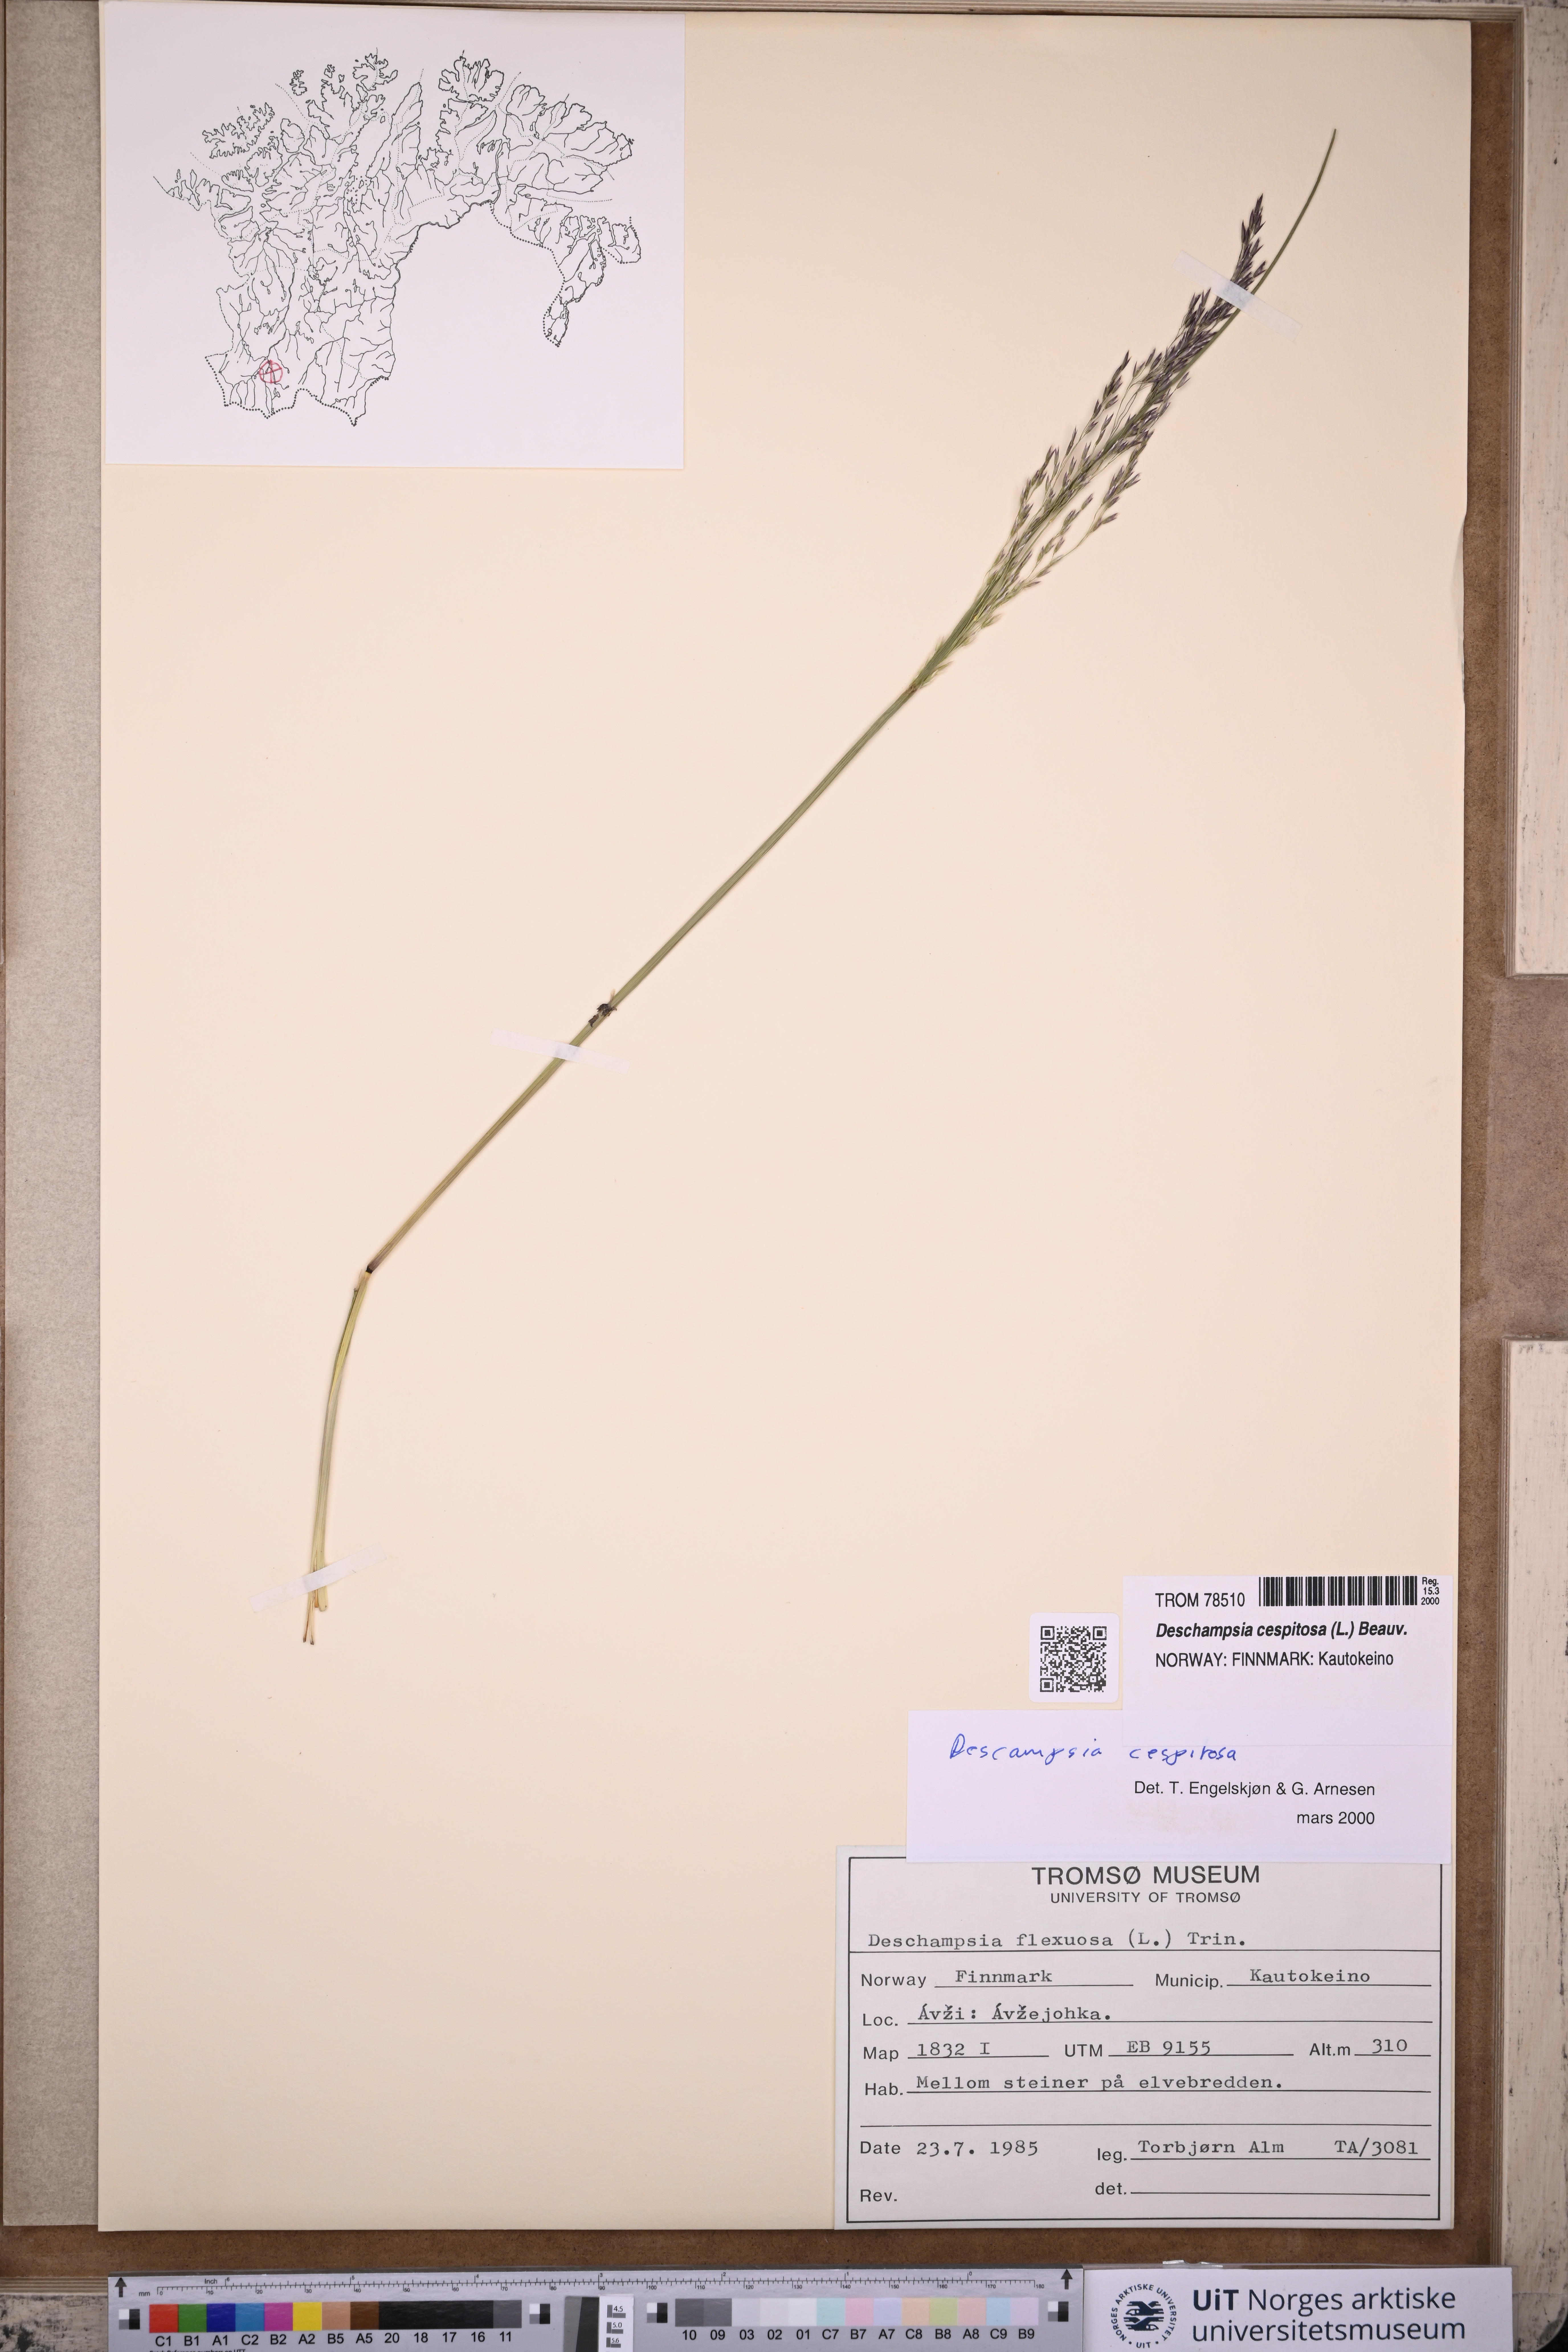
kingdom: Plantae
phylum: Tracheophyta
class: Liliopsida
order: Poales
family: Poaceae
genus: Deschampsia
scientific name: Deschampsia cespitosa
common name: Tufted hair-grass
